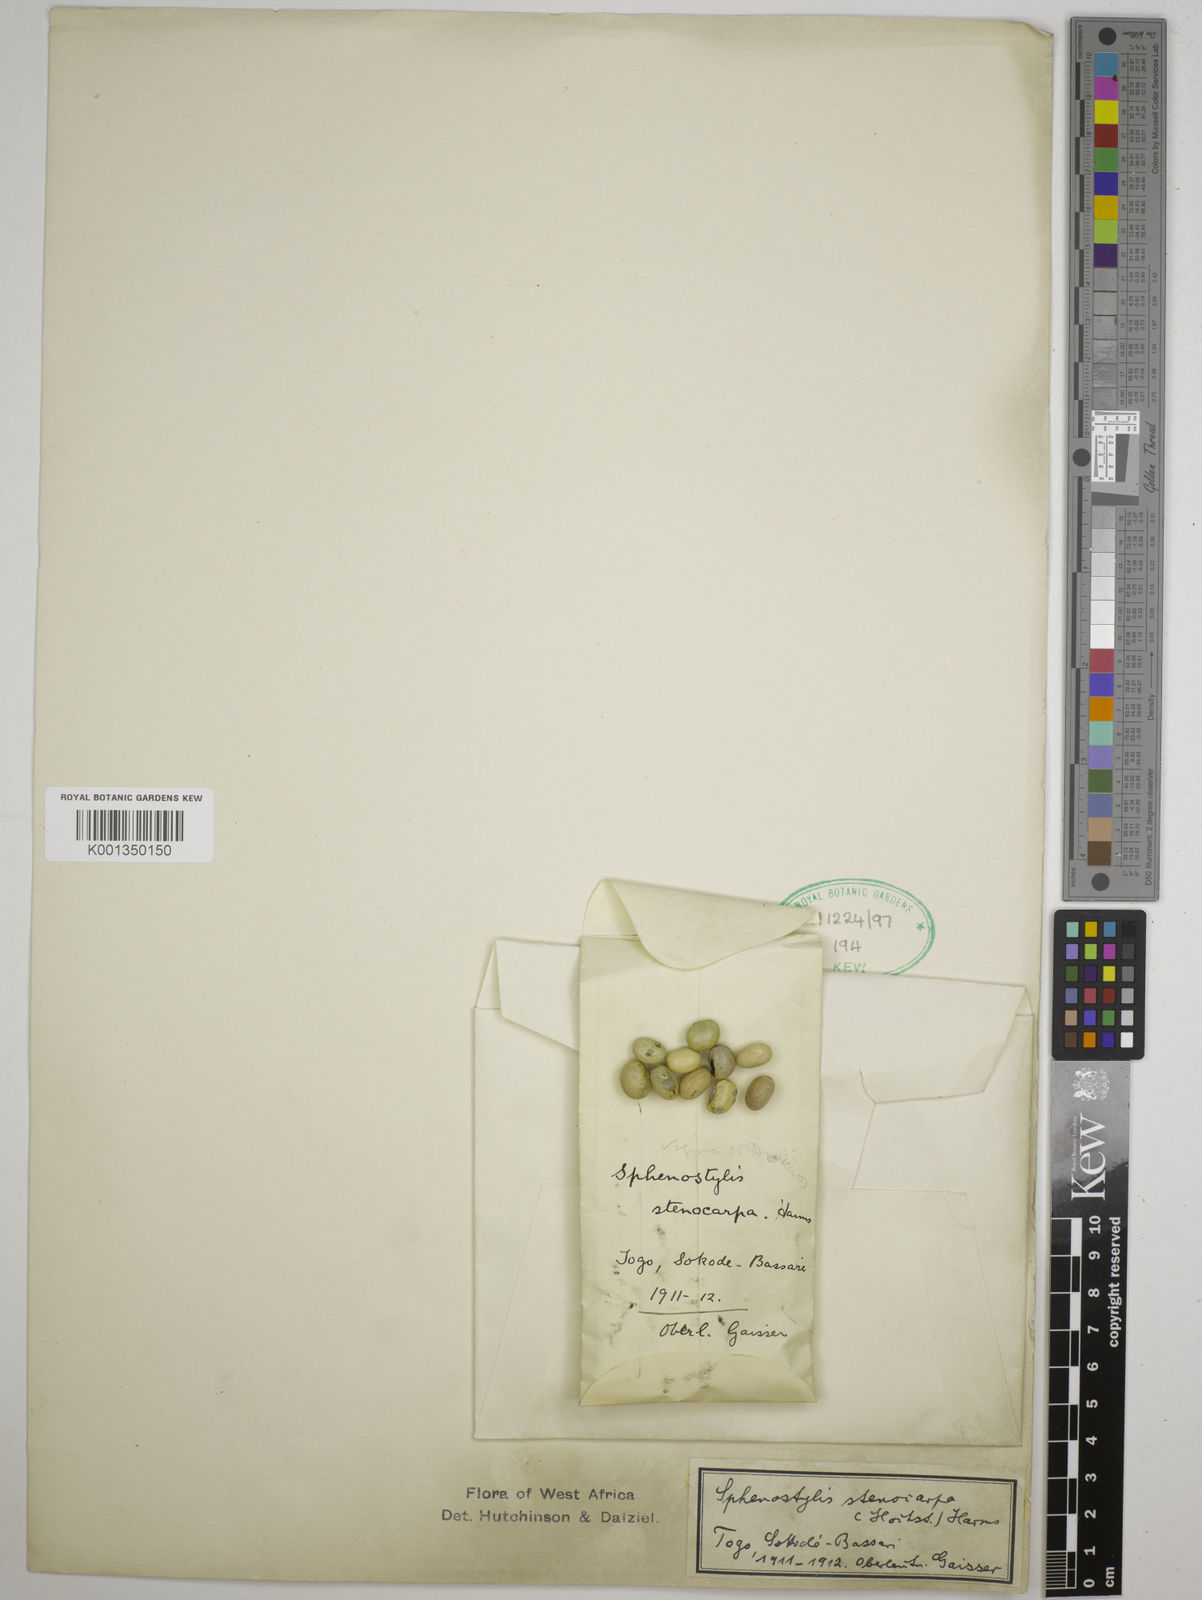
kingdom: Plantae
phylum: Tracheophyta
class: Magnoliopsida
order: Fabales
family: Fabaceae
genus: Sphenostylis
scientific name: Sphenostylis stenocarpa
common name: Yam-pea
